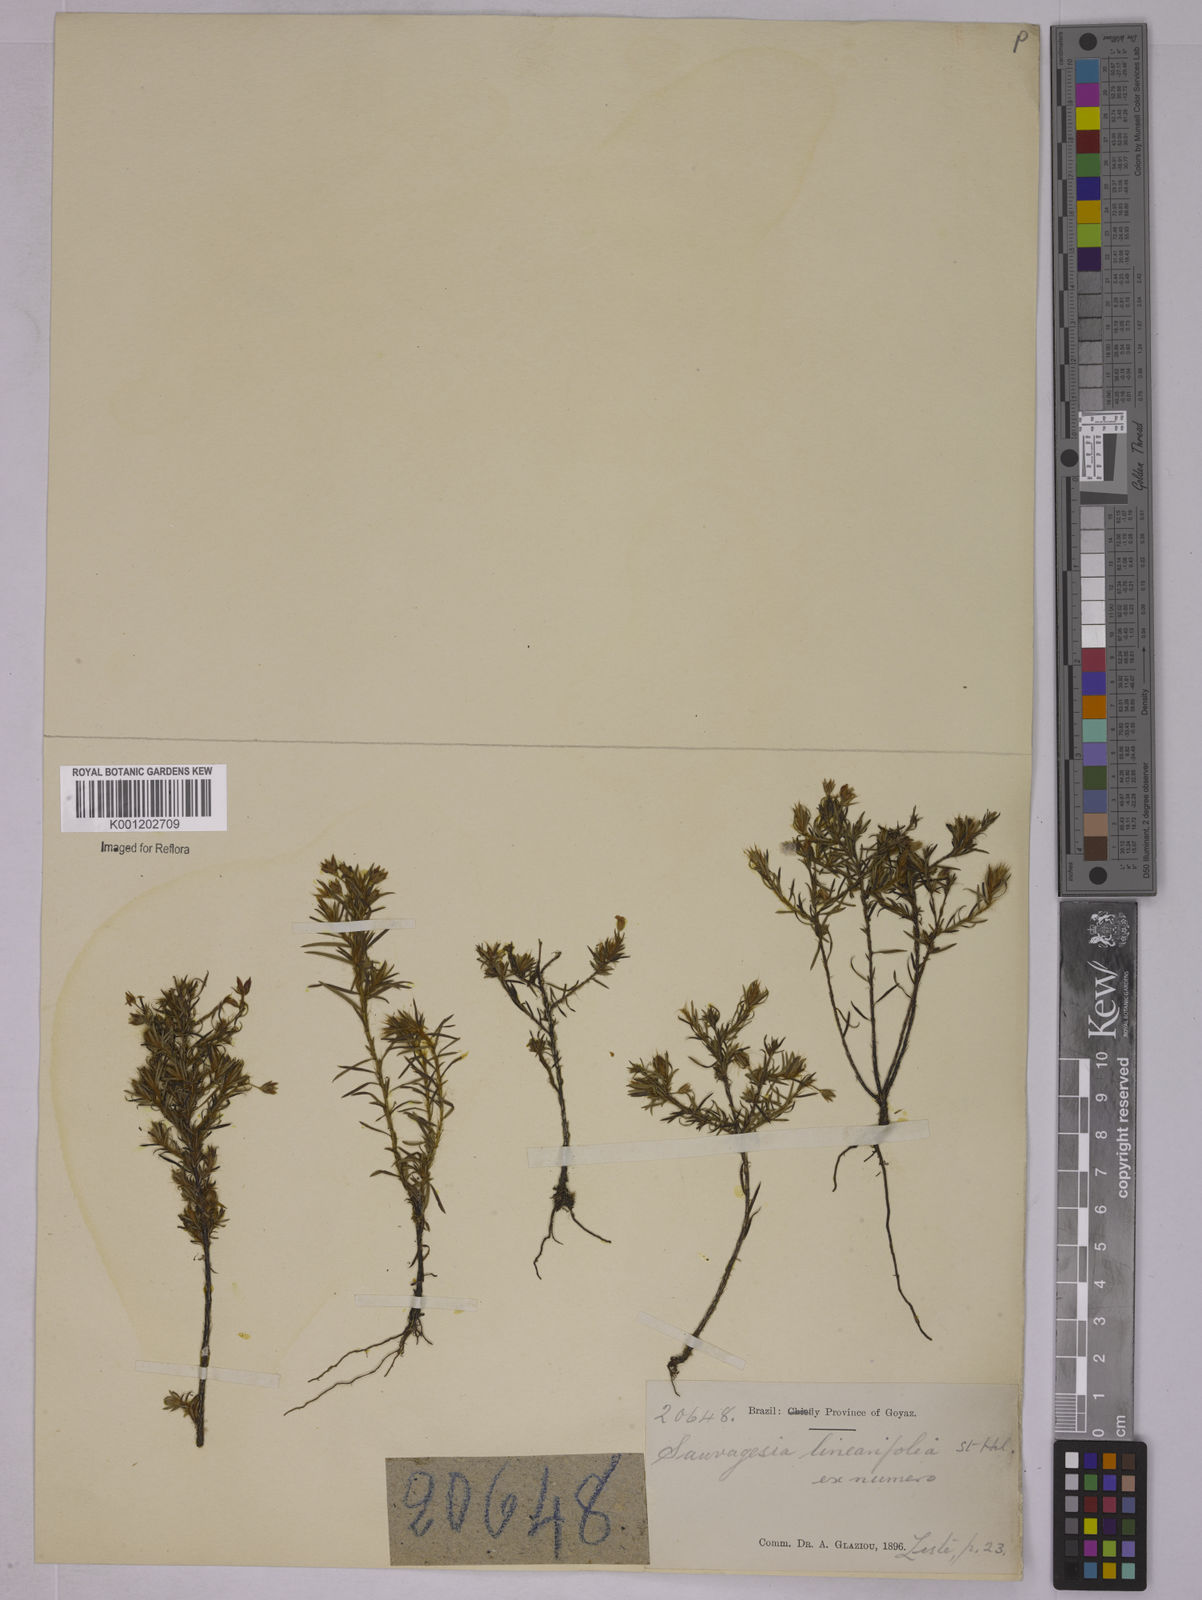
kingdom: Plantae
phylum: Tracheophyta
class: Magnoliopsida
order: Malpighiales
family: Ochnaceae
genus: Sauvagesia
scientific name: Sauvagesia linearifolia
